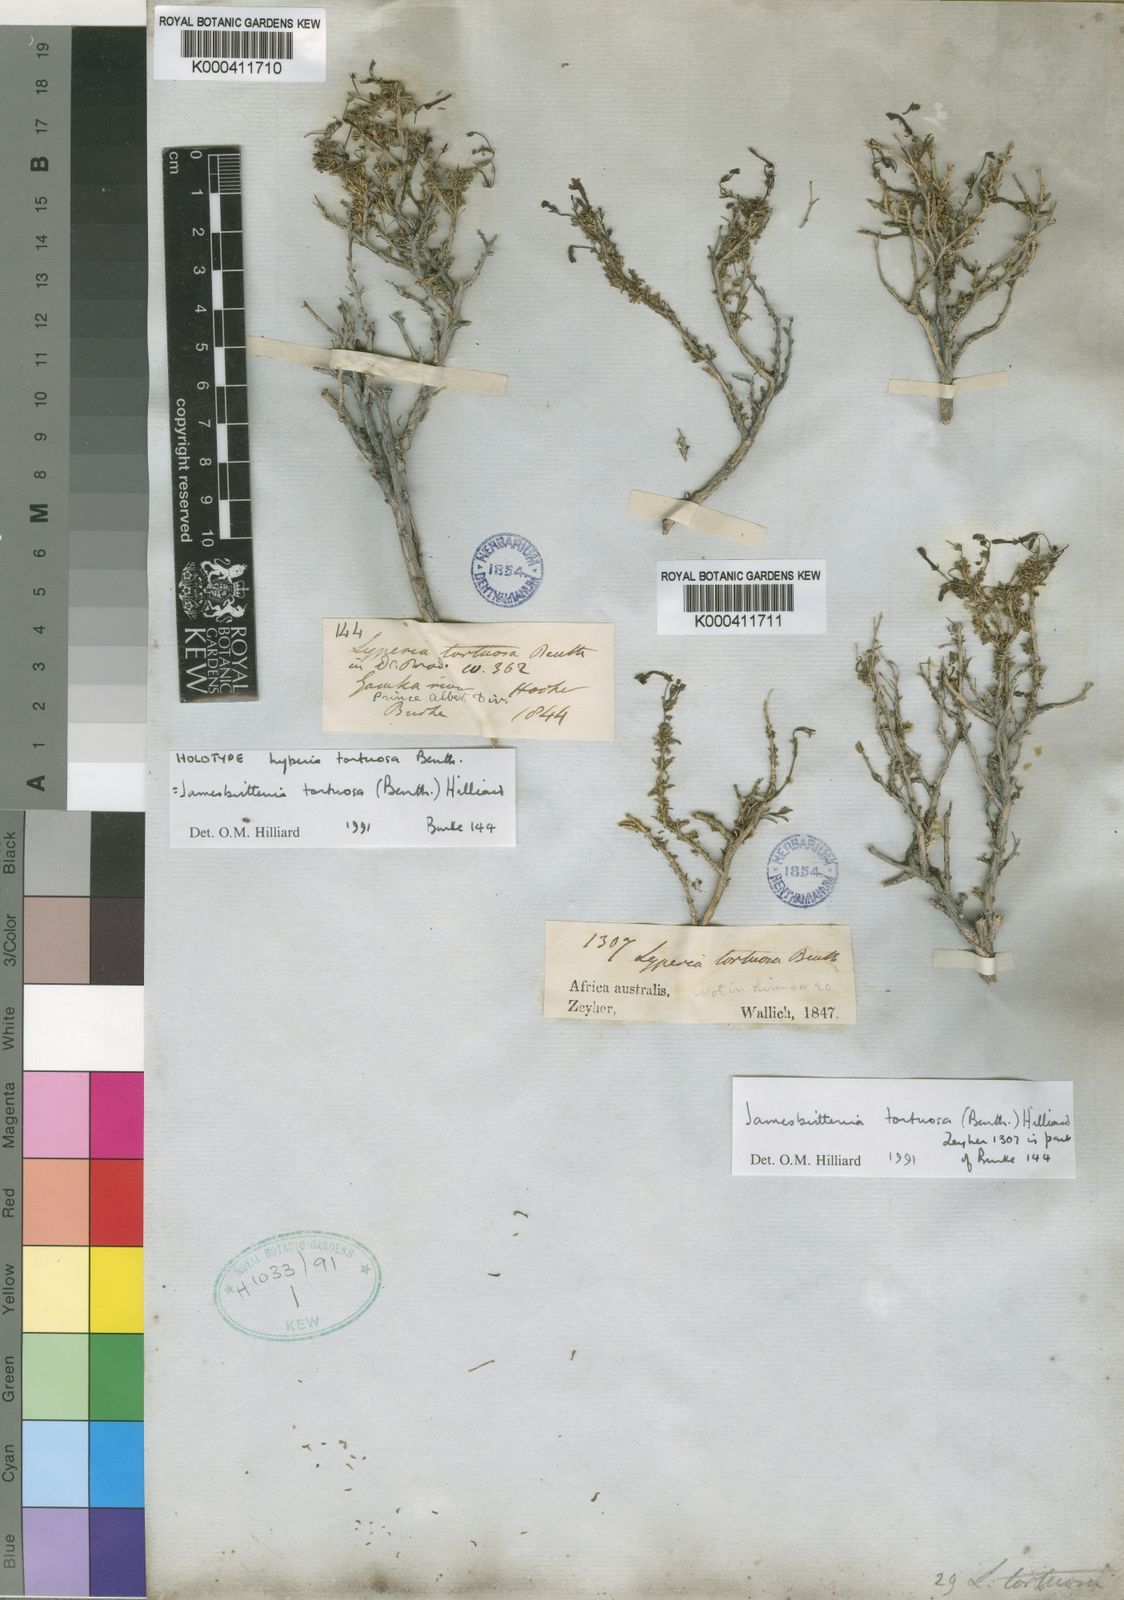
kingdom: Plantae
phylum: Tracheophyta
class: Magnoliopsida
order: Lamiales
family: Scrophulariaceae
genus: Jamesbrittenia
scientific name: Jamesbrittenia tortuosa
